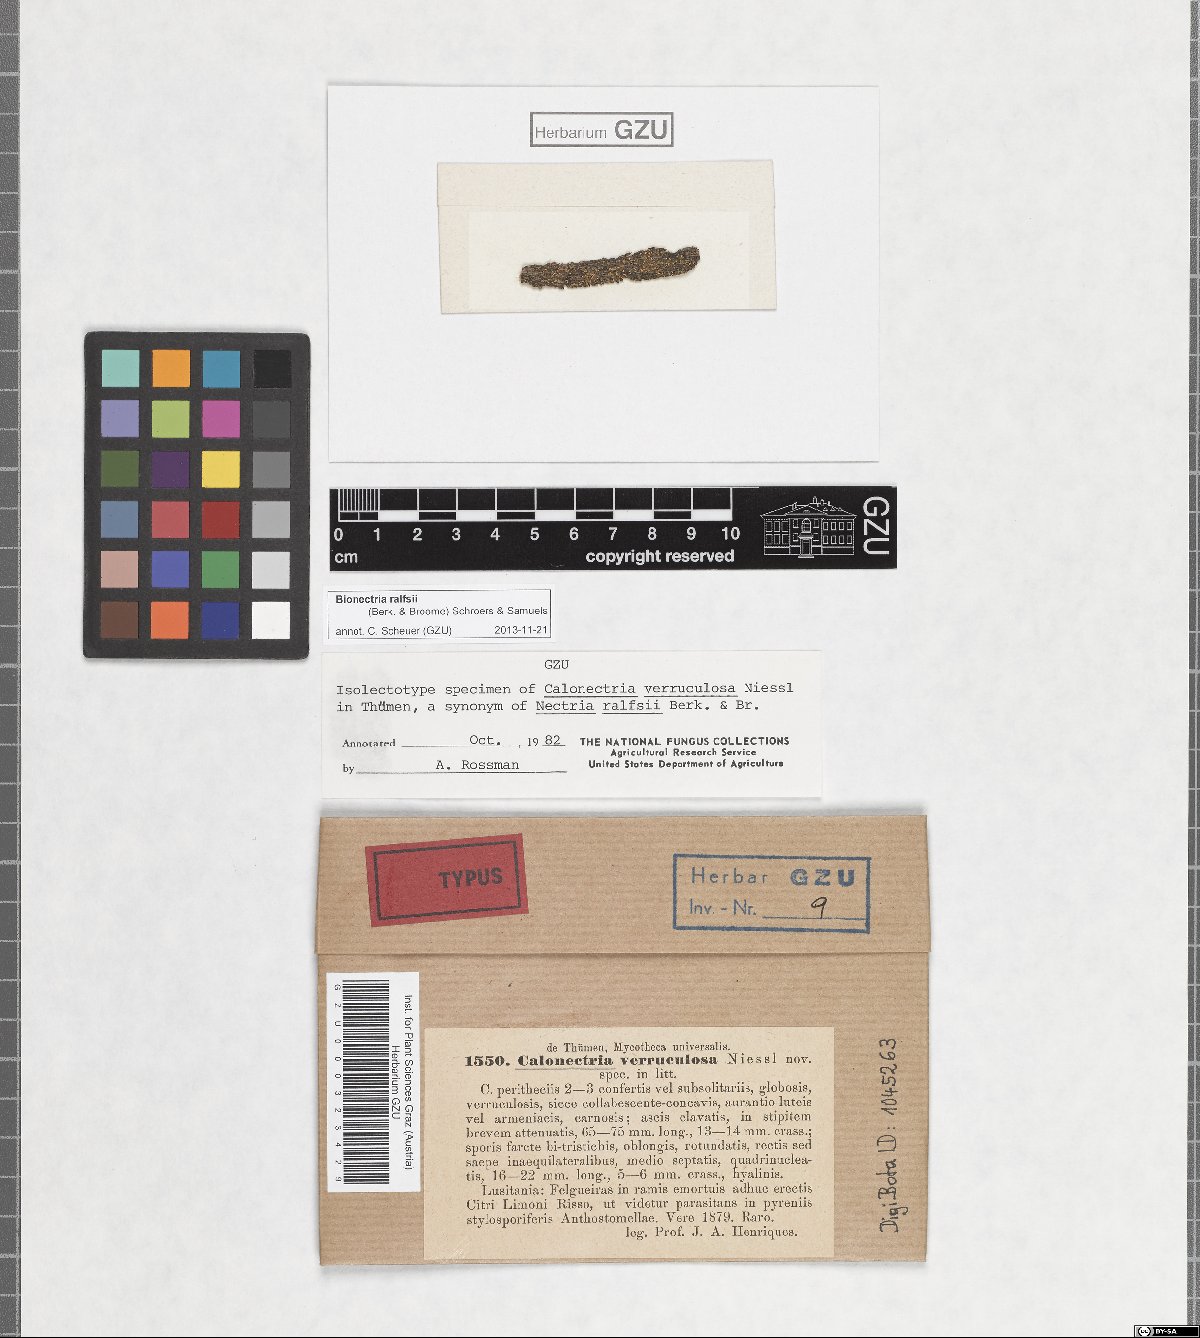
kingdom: Fungi
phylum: Ascomycota
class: Sordariomycetes
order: Hypocreales
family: Bionectriaceae
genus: Bionectria
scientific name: Bionectria ralfsii
